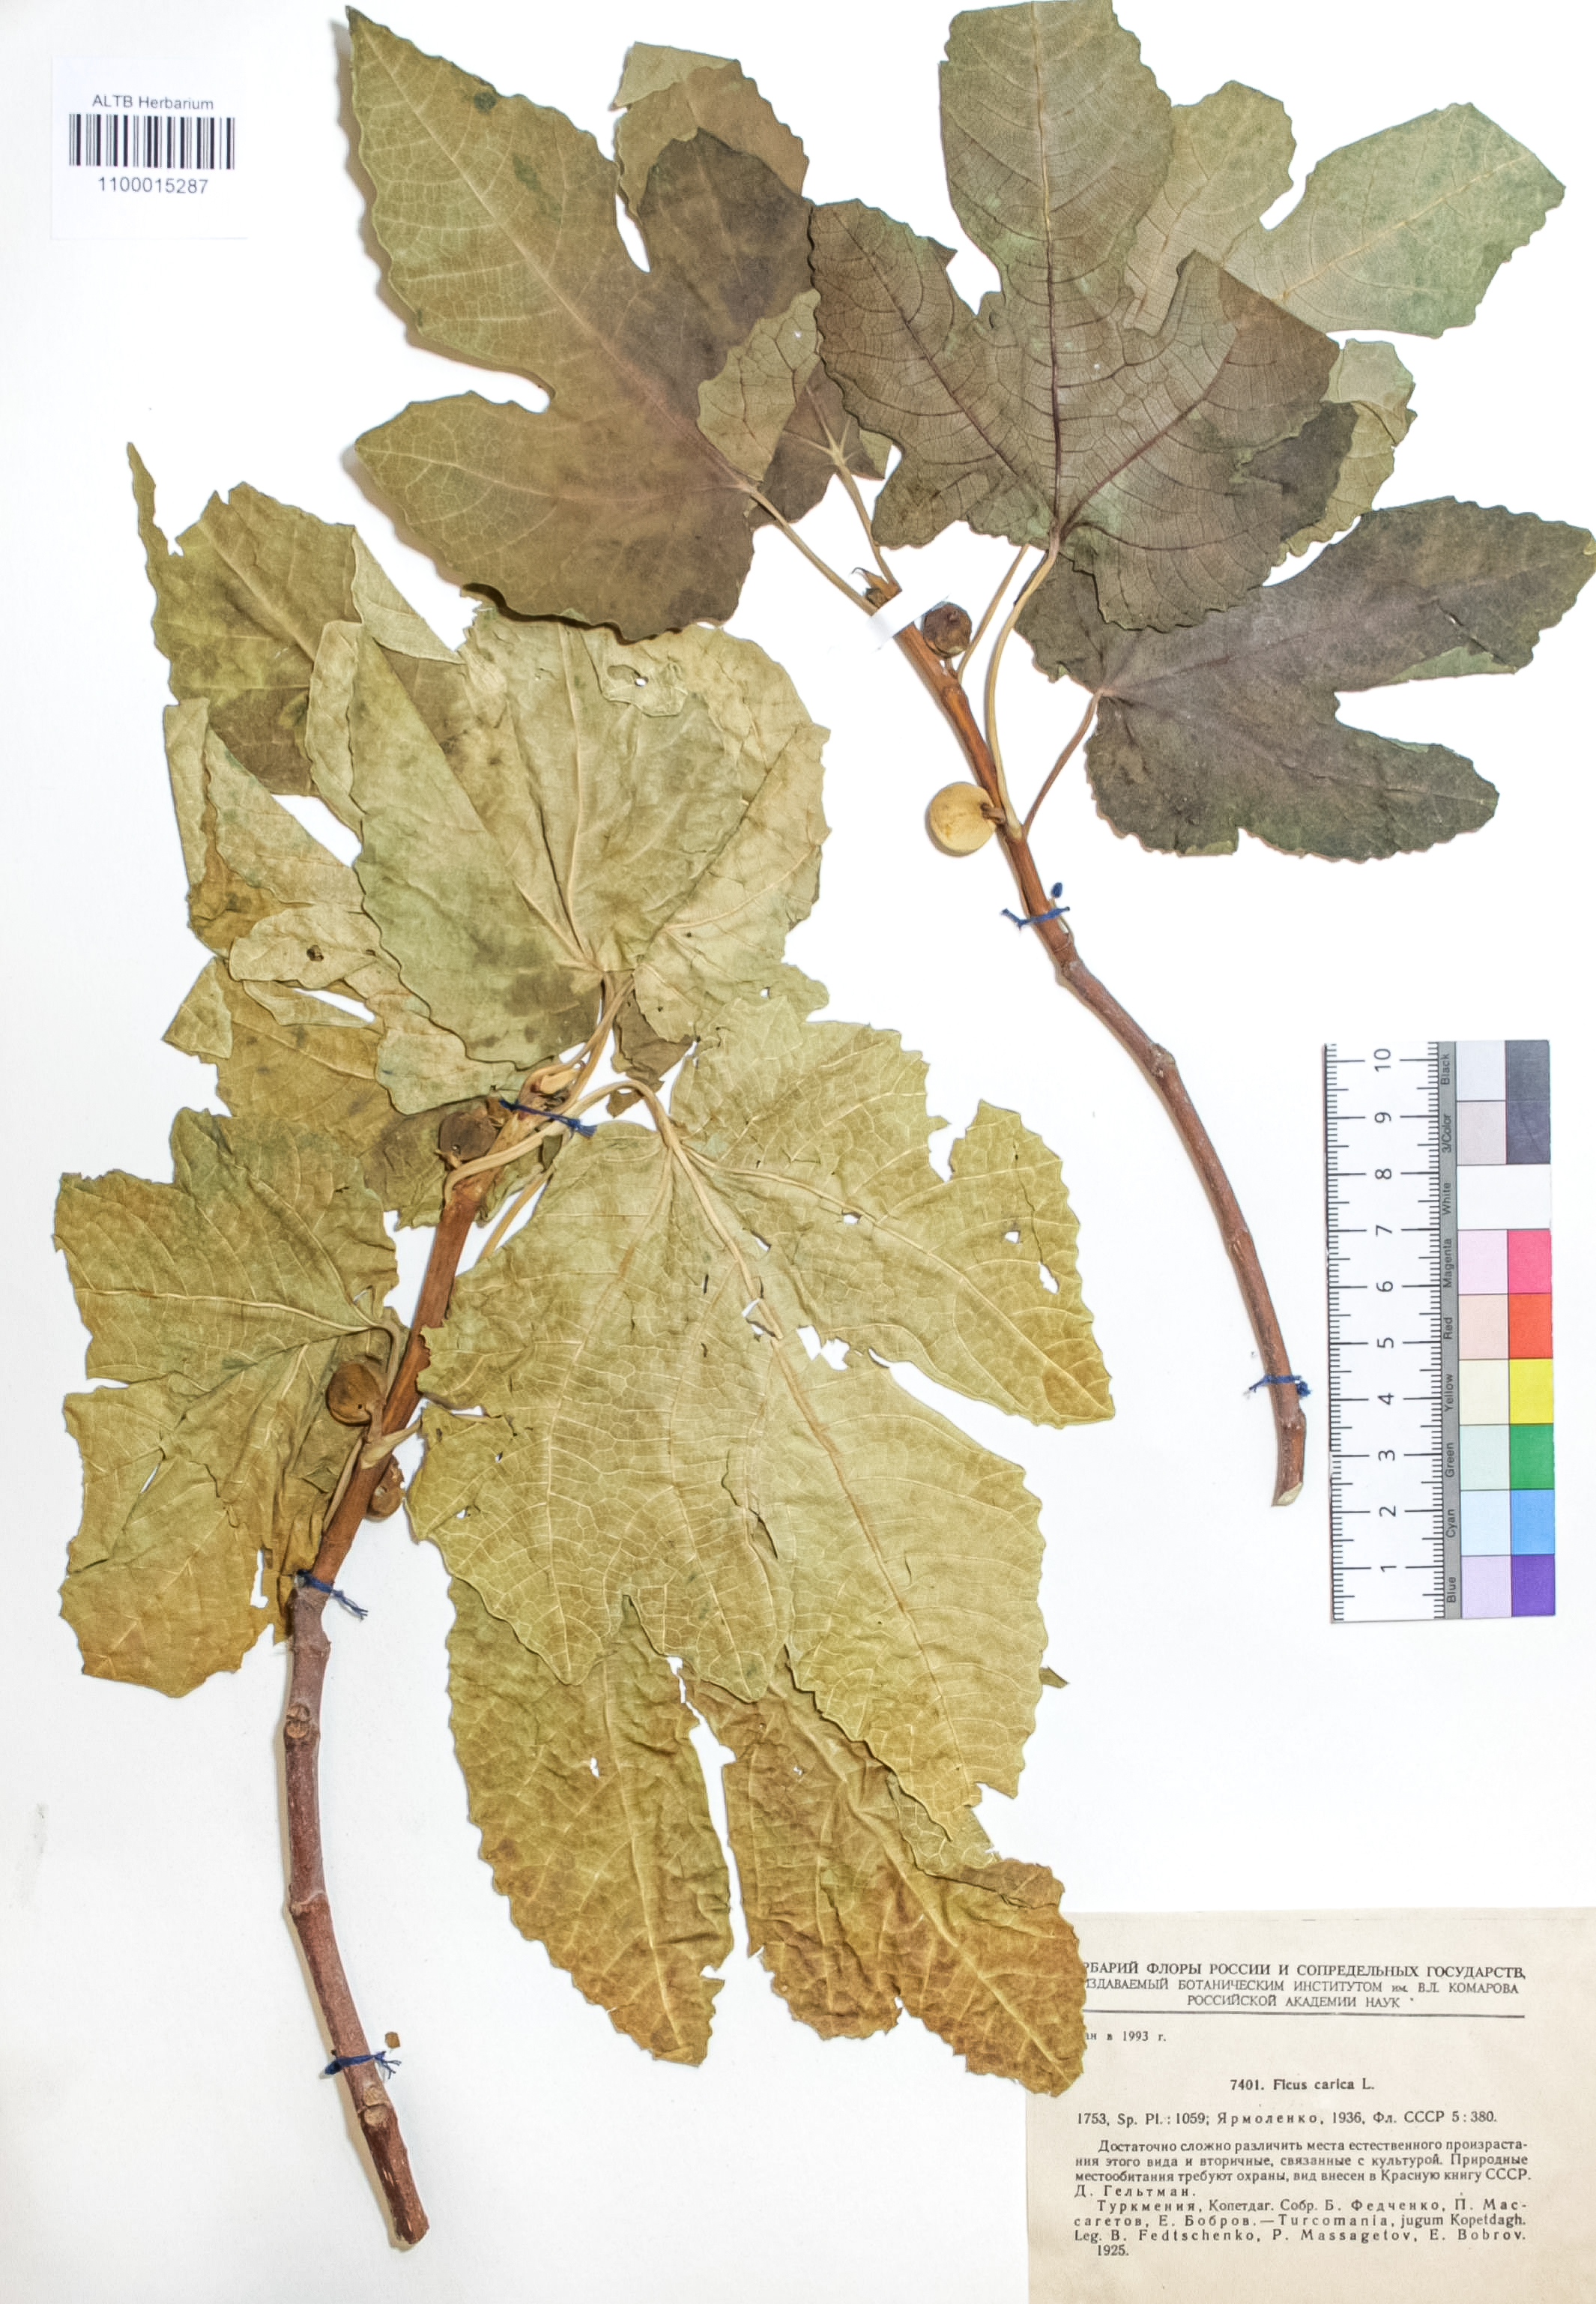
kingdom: Plantae
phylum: Tracheophyta
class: Magnoliopsida
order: Rosales
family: Moraceae
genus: Ficus
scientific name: Ficus carica
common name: Fig
